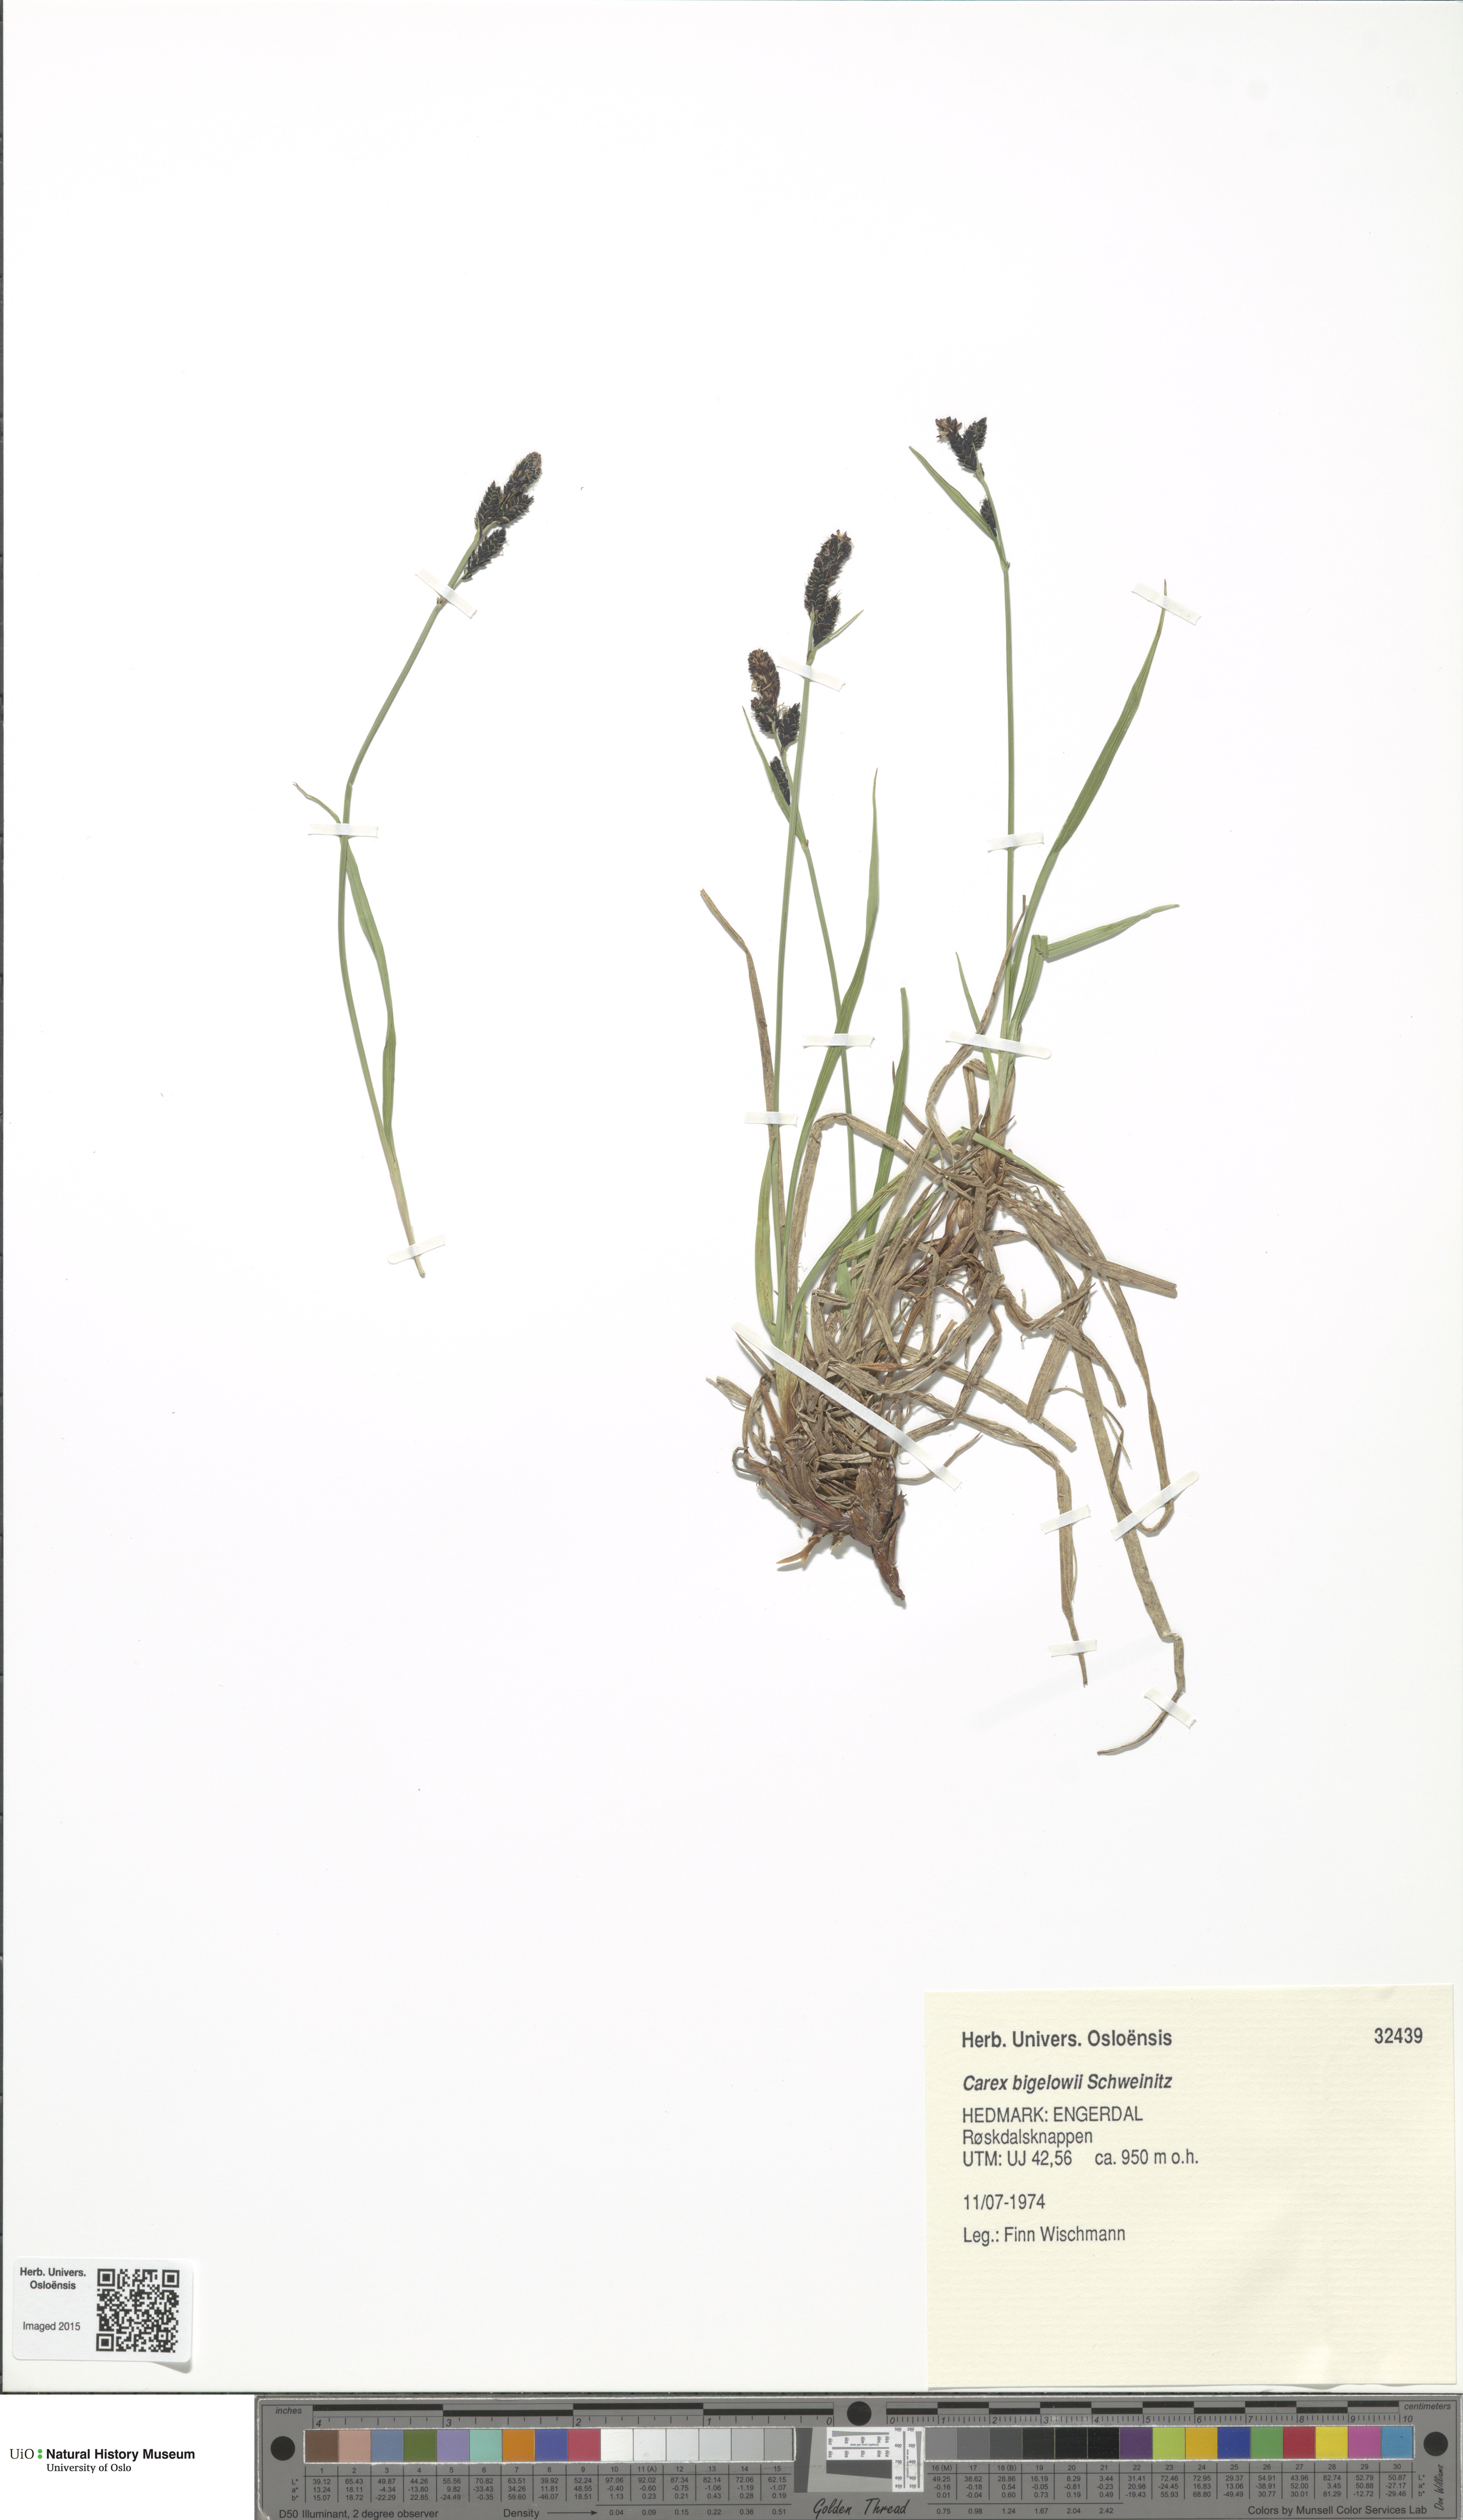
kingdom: Plantae
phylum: Tracheophyta
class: Liliopsida
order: Poales
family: Cyperaceae
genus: Carex
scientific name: Carex bigelowii
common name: Stiff sedge
